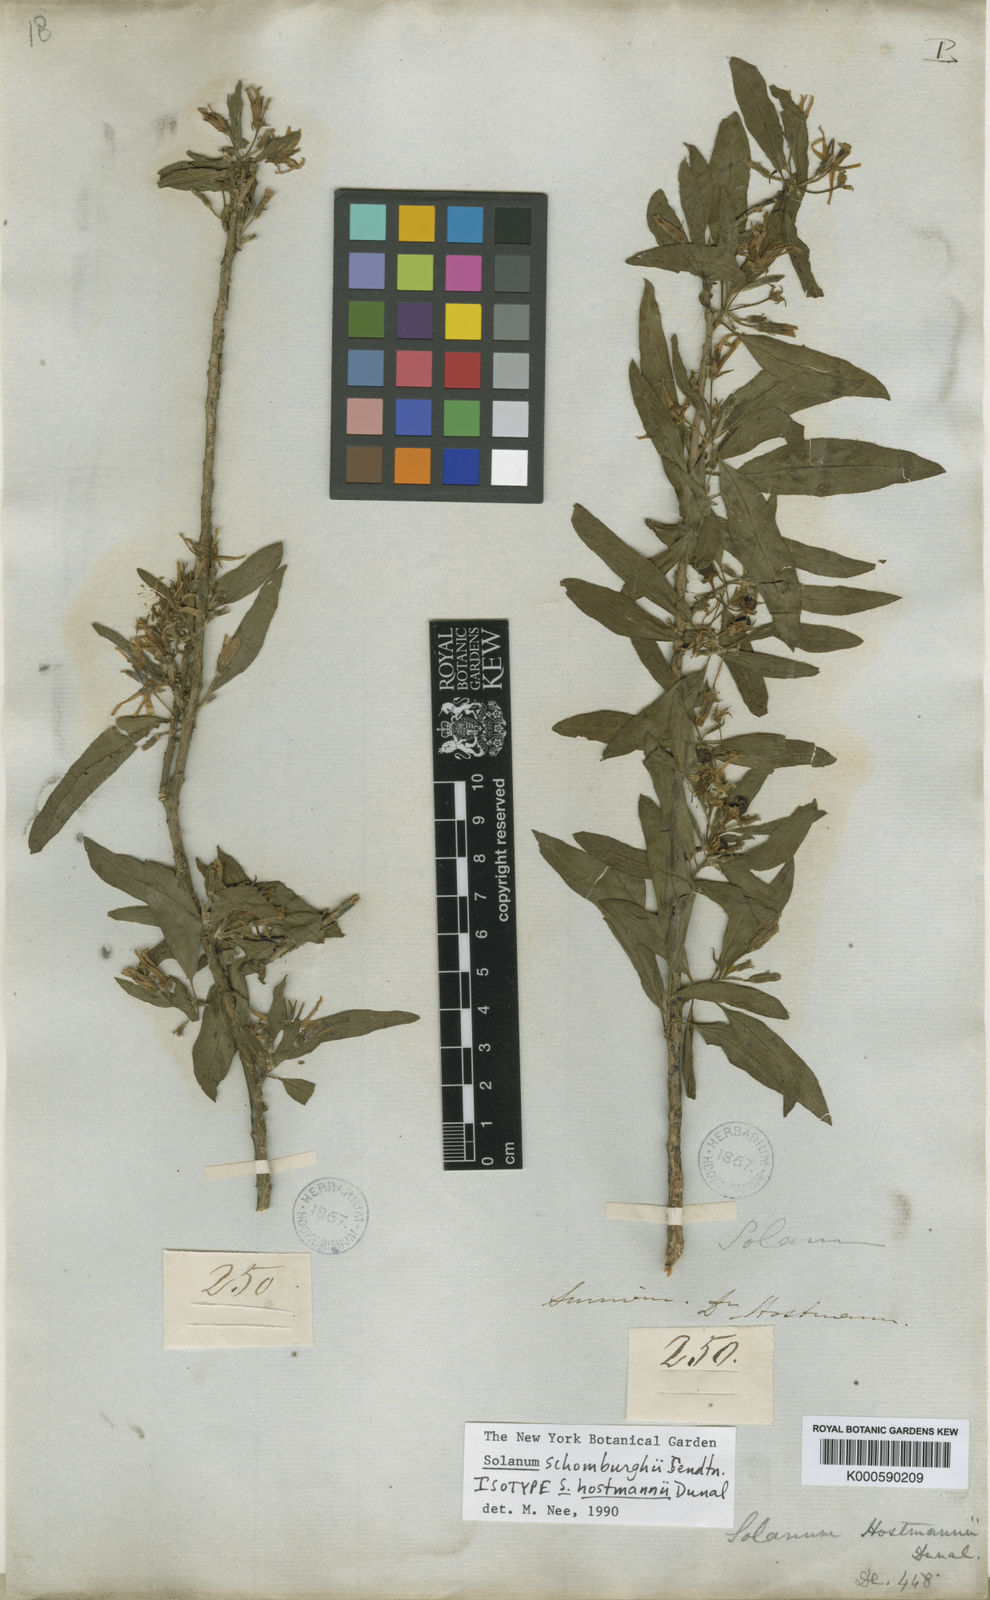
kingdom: Plantae
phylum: Tracheophyta
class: Magnoliopsida
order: Solanales
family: Solanaceae
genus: Solanum
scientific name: Solanum schomburgkii
